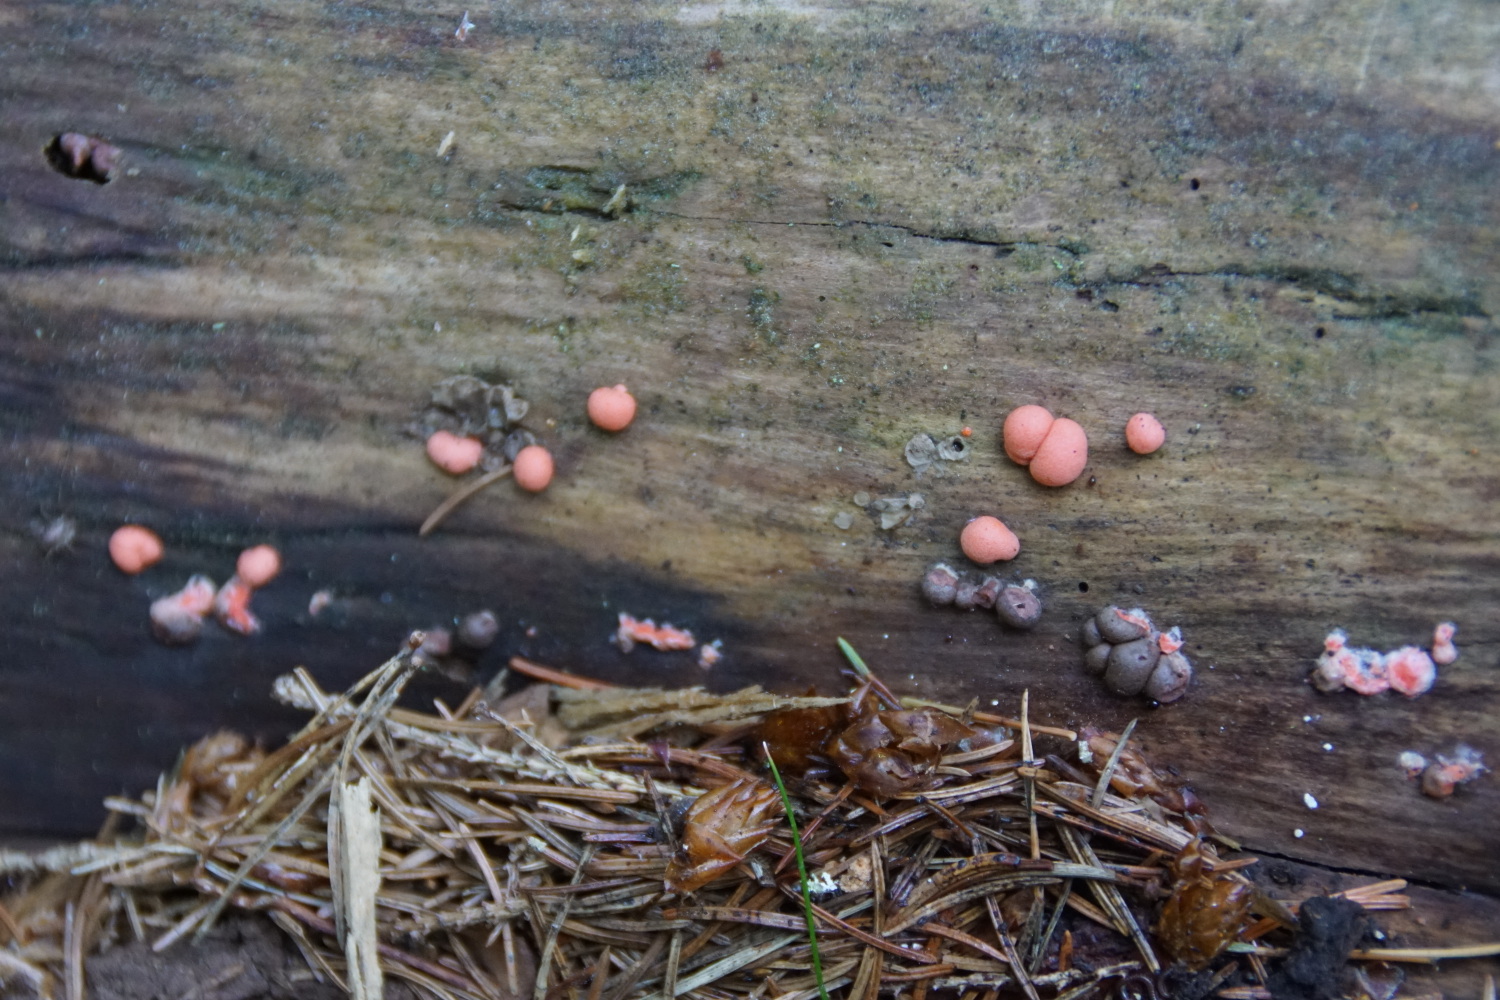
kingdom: Protozoa
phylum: Mycetozoa
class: Myxomycetes
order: Cribrariales
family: Tubiferaceae
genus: Lycogala
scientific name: Lycogala epidendrum
